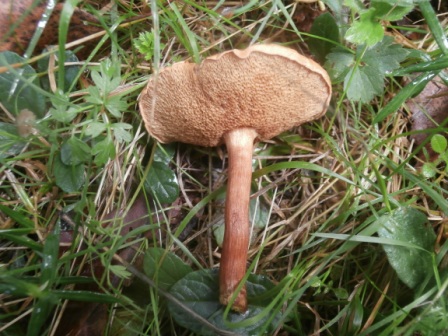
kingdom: Fungi
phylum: Basidiomycota
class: Agaricomycetes
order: Boletales
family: Suillaceae
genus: Suillus
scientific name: Suillus bovinus
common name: grovporet slimrørhat
